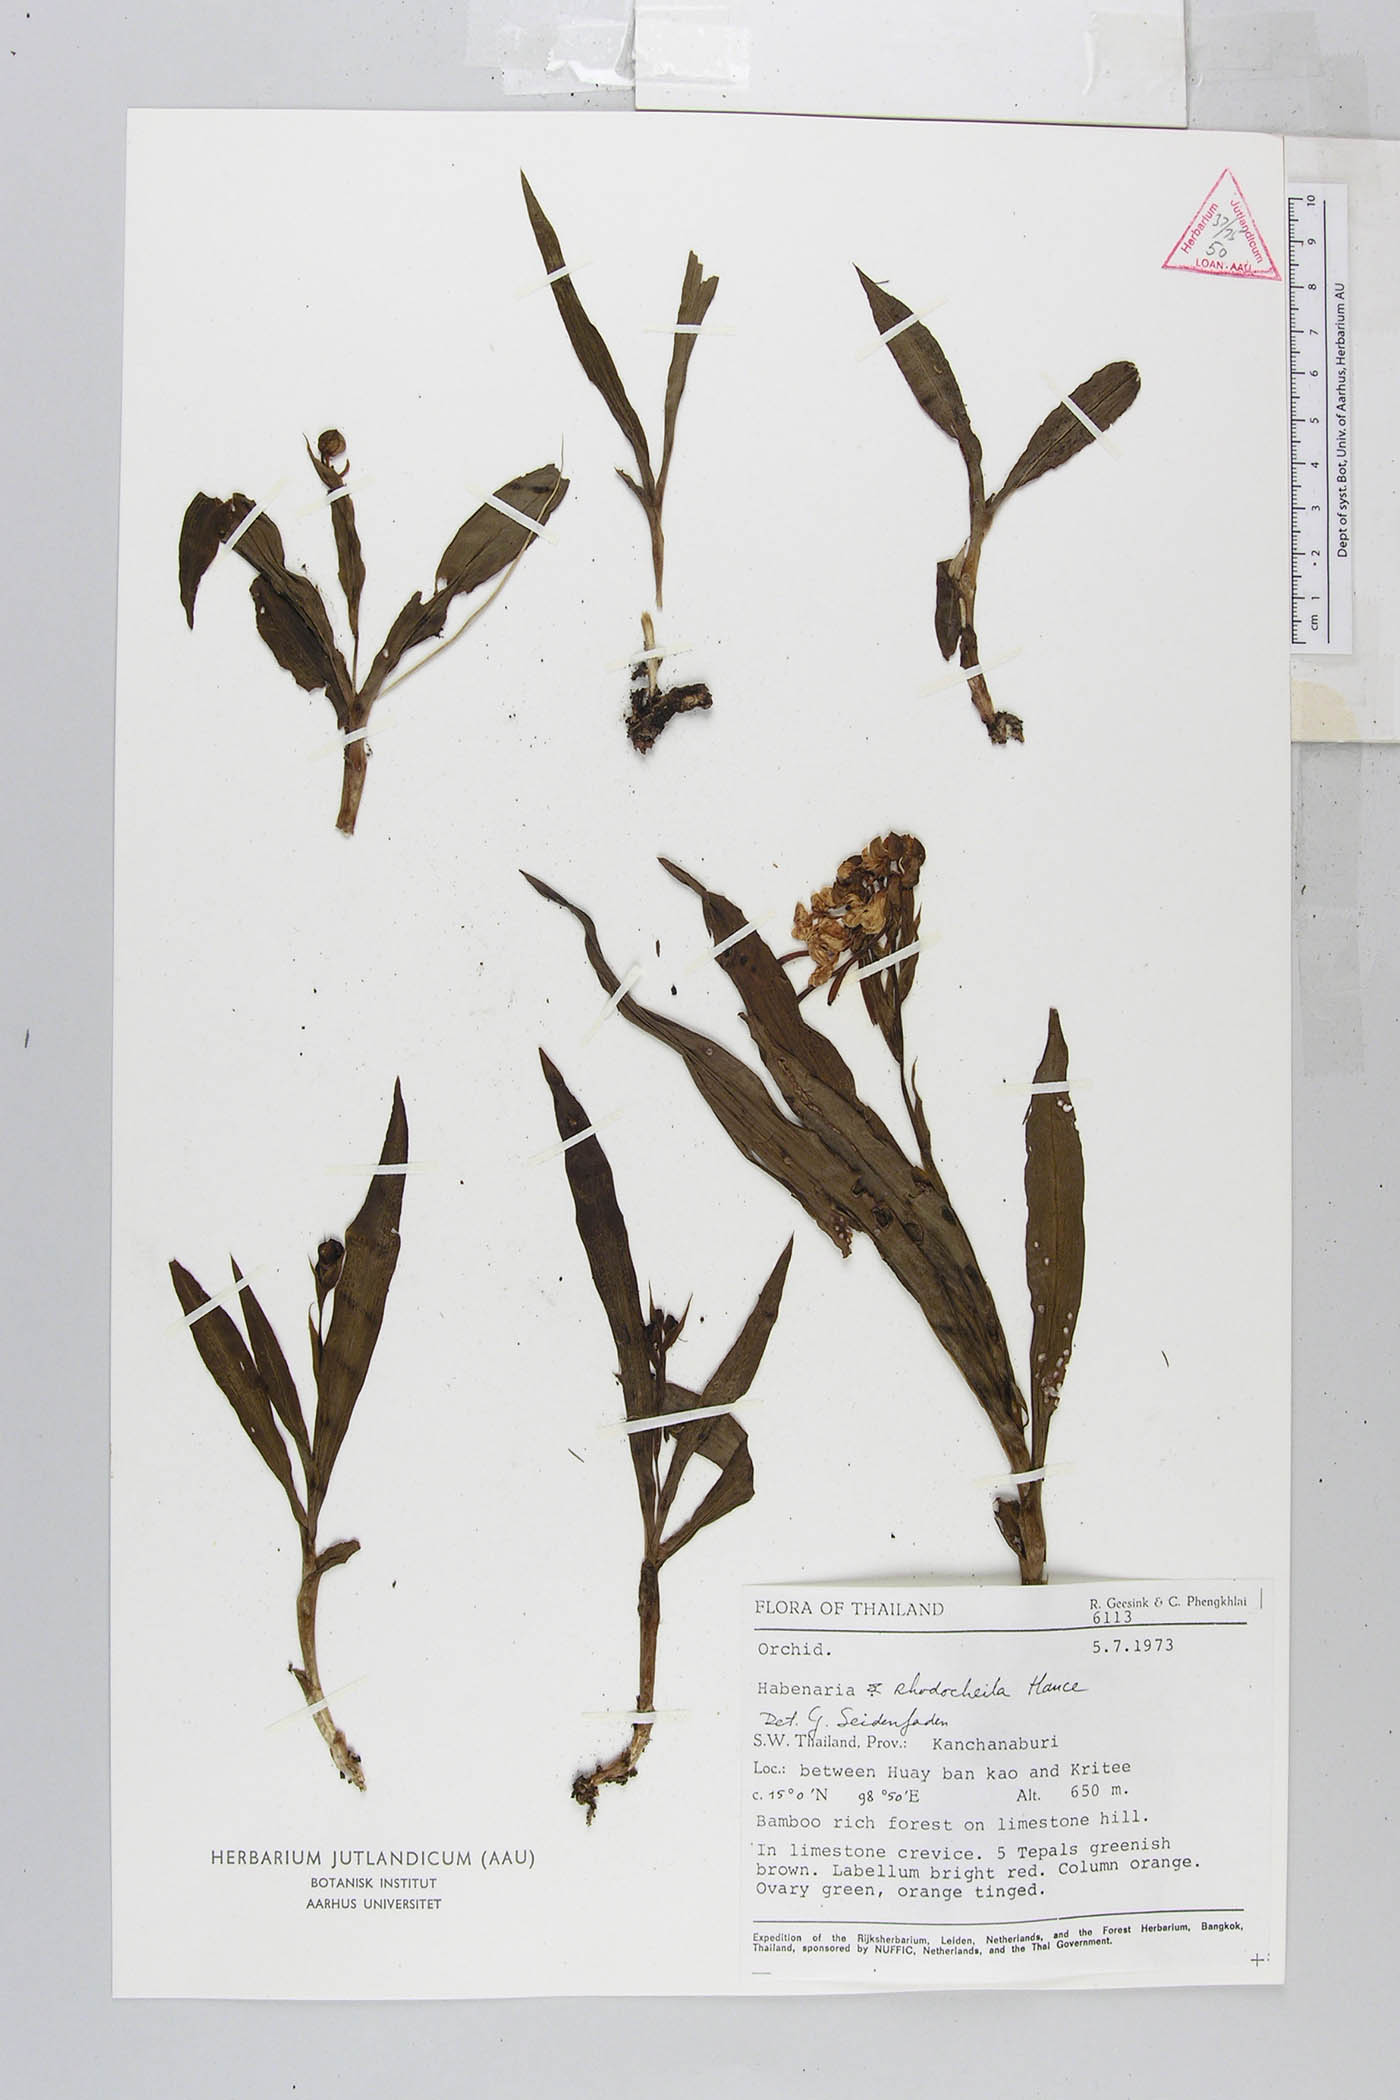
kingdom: Plantae
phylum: Tracheophyta
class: Liliopsida
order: Asparagales
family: Orchidaceae
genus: Habenaria
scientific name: Habenaria rhodocheila
